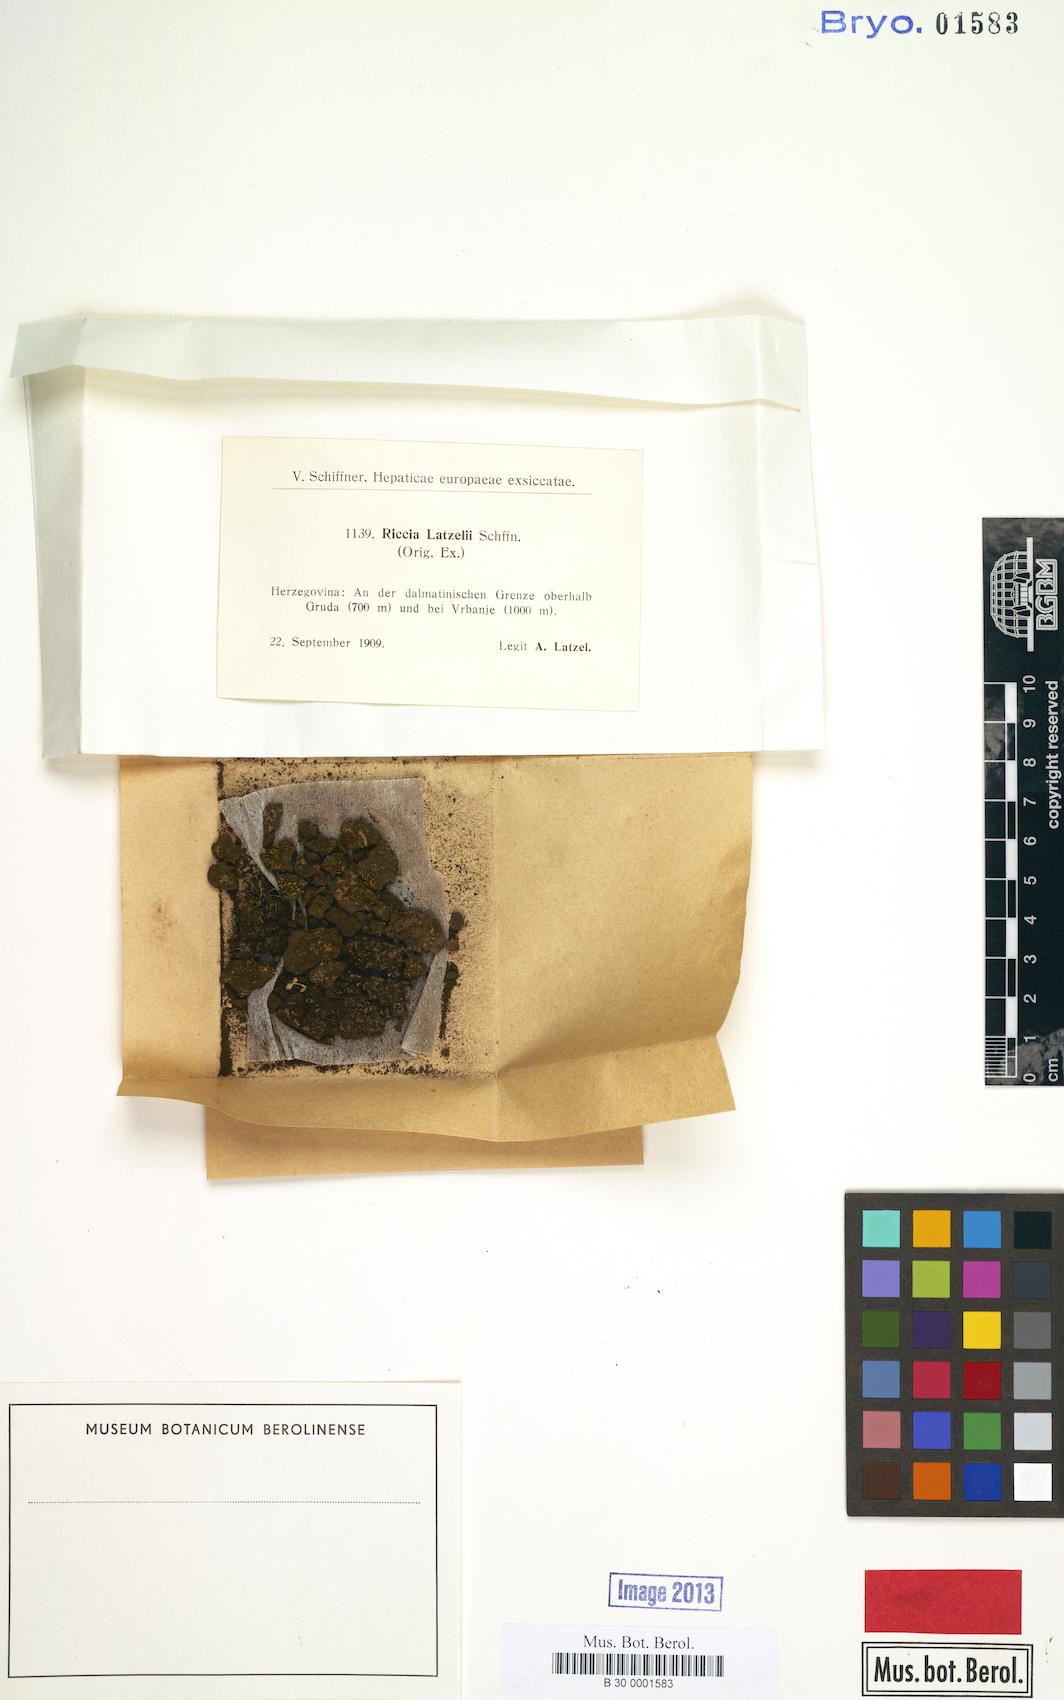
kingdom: Plantae
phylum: Marchantiophyta
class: Marchantiopsida
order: Marchantiales
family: Ricciaceae
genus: Riccia
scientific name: Riccia ciliifera
